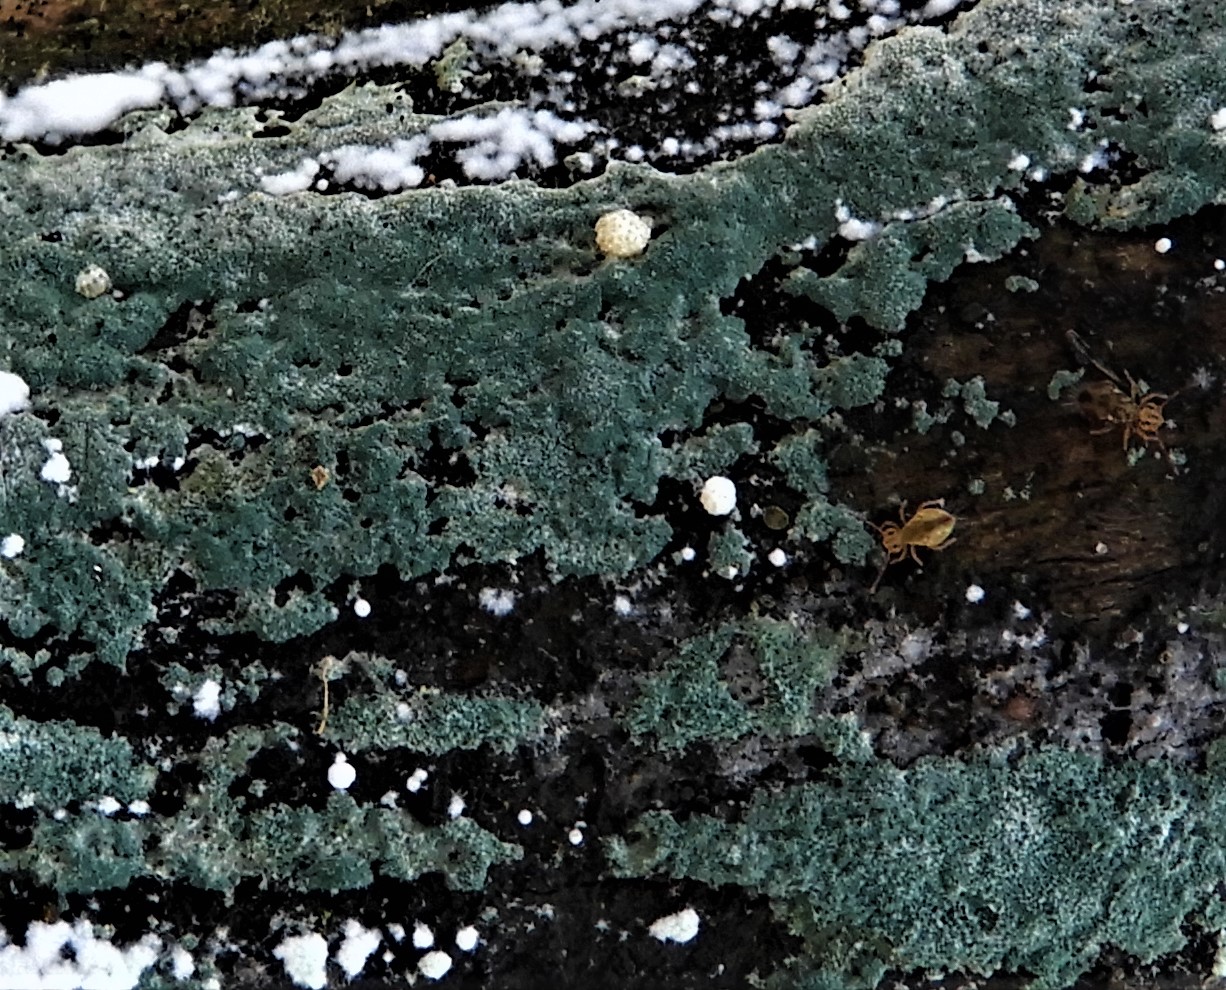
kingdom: Fungi
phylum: Ascomycota
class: Sordariomycetes
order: Hypocreales
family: Hypocreaceae
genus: Trichoderma
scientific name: Trichoderma
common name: kødkerne
